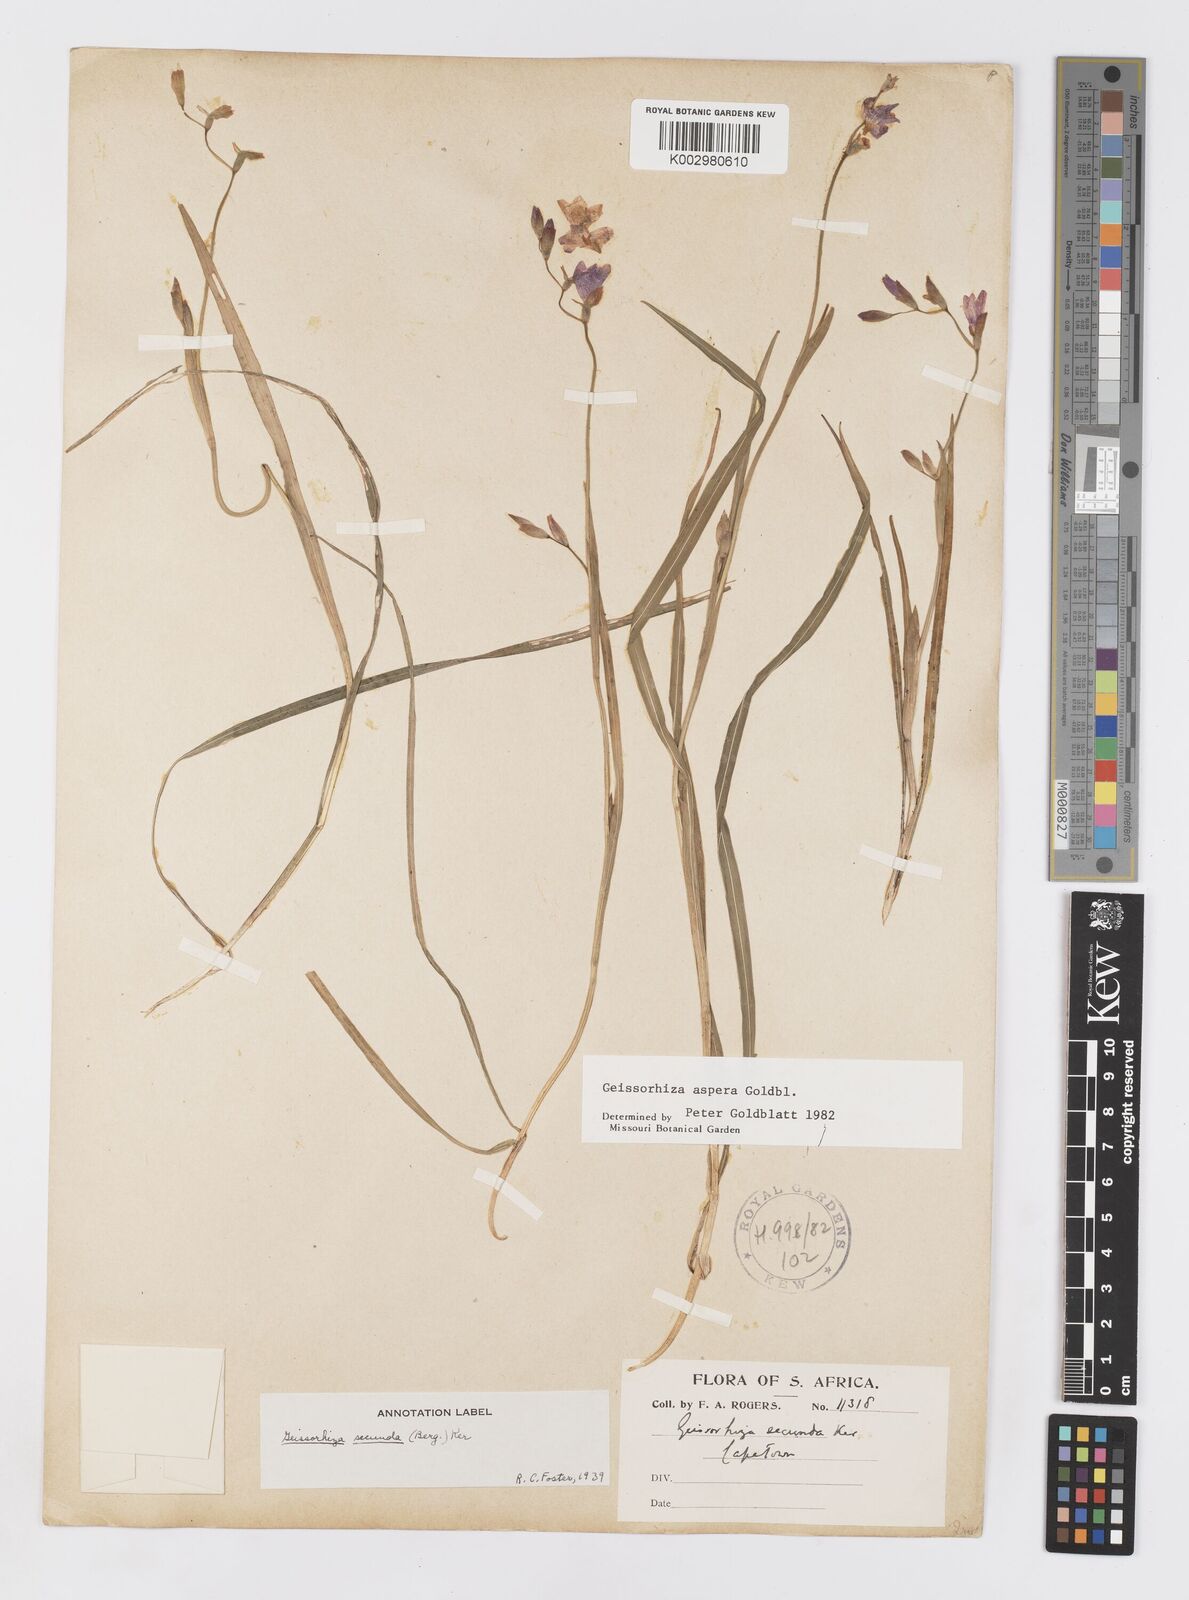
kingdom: Plantae
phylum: Tracheophyta
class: Liliopsida
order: Asparagales
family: Iridaceae
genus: Geissorhiza
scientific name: Geissorhiza aspera
